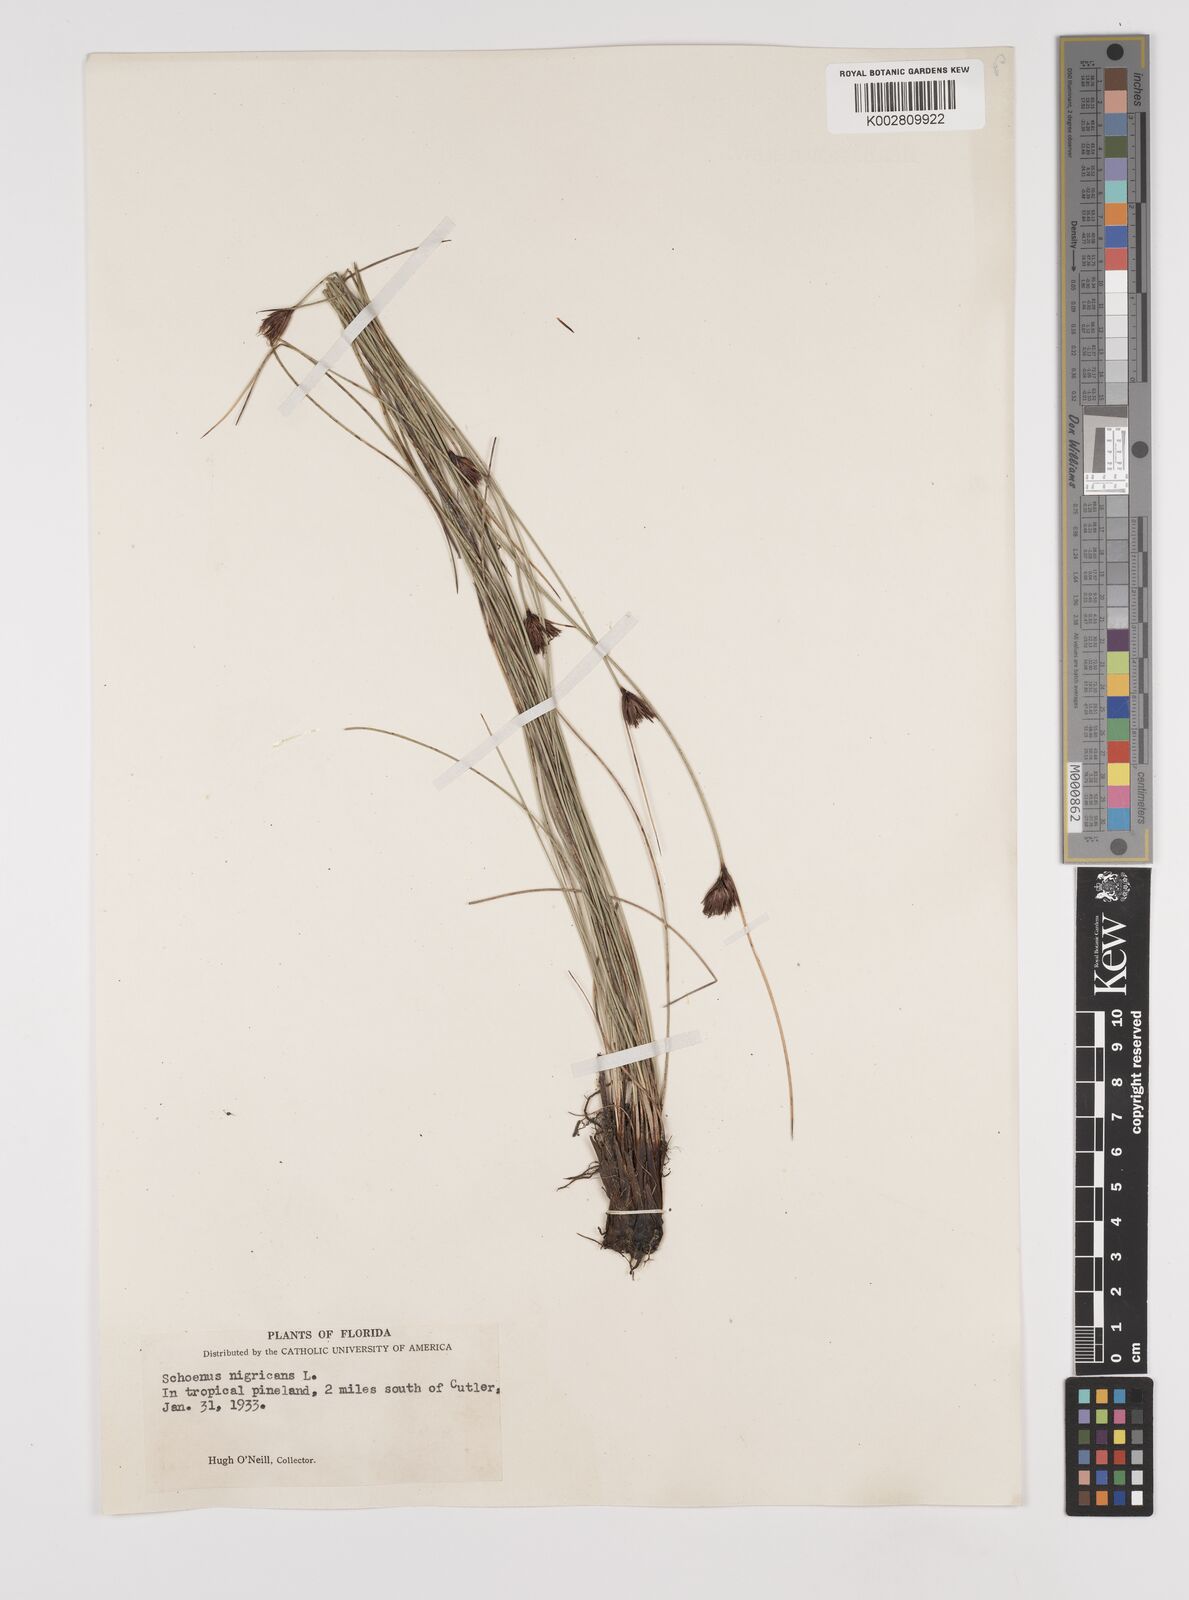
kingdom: Plantae
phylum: Tracheophyta
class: Liliopsida
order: Poales
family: Cyperaceae
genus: Schoenus
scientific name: Schoenus nigricans
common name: Black bog-rush
